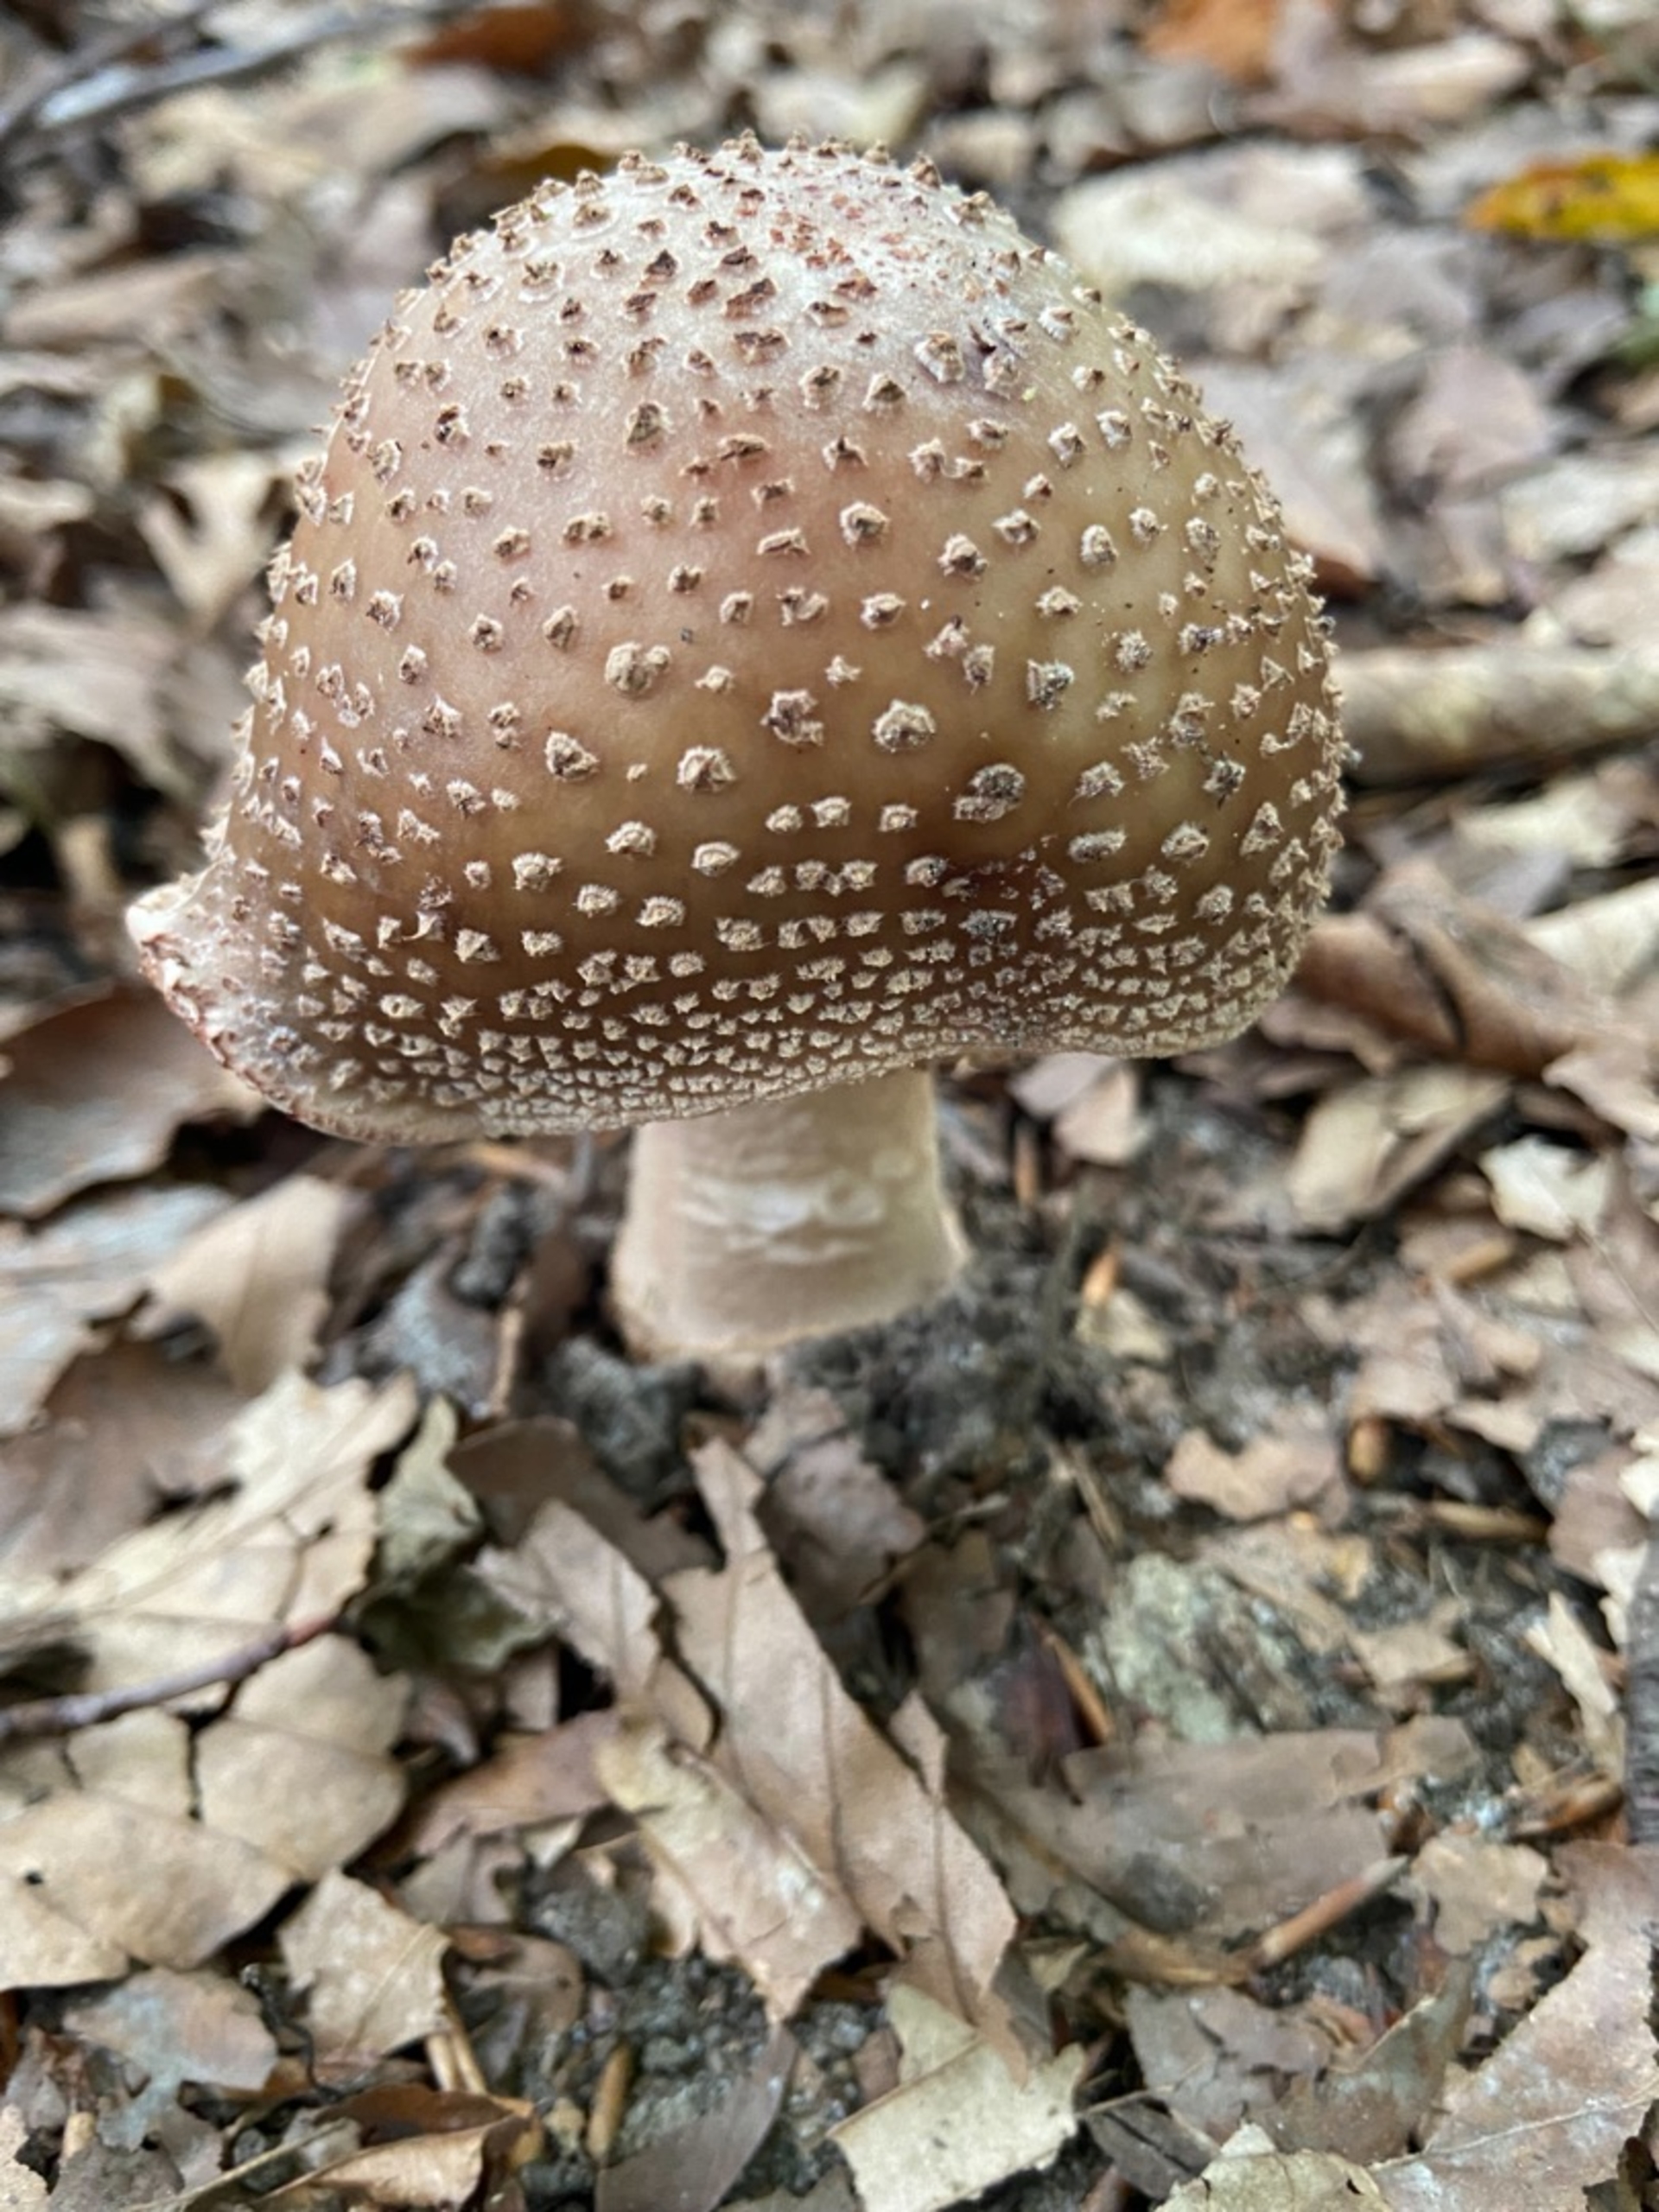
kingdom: Fungi
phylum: Basidiomycota
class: Agaricomycetes
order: Agaricales
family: Amanitaceae
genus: Amanita
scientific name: Amanita rubescens
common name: Rødmende fluesvamp
